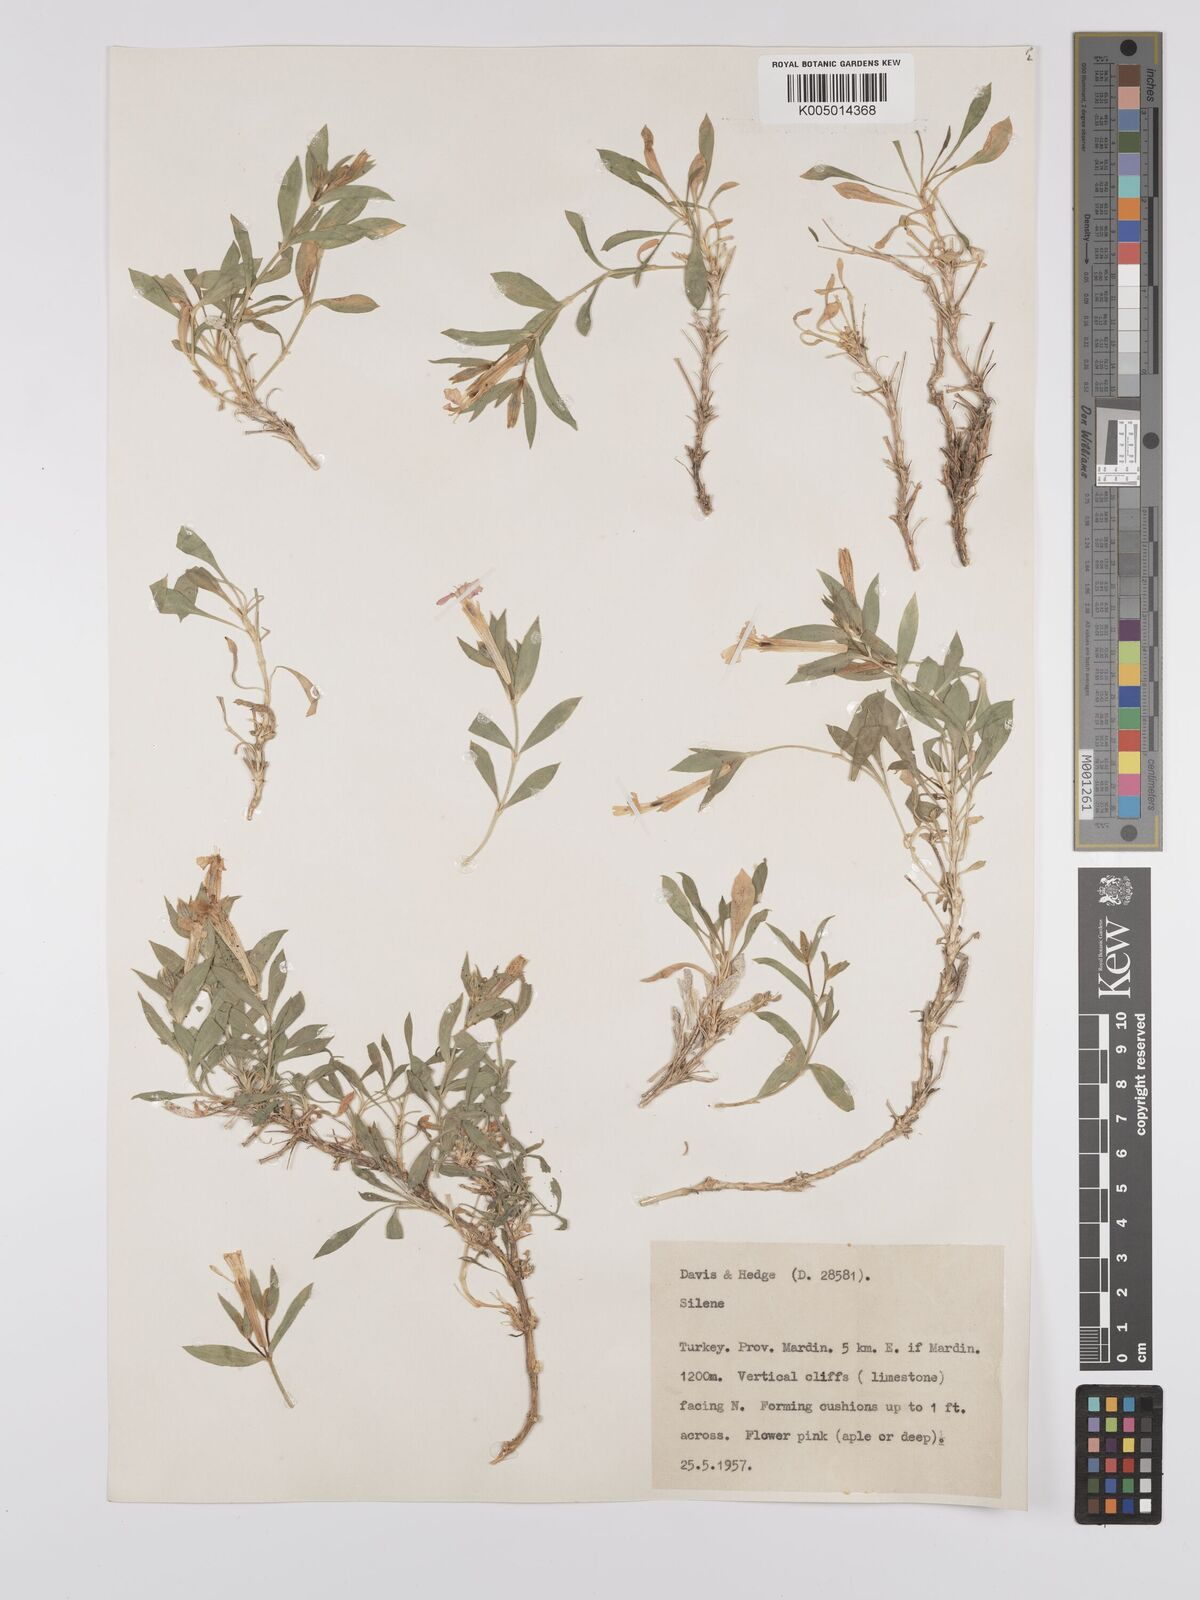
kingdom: Plantae
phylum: Tracheophyta
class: Magnoliopsida
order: Caryophyllales
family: Caryophyllaceae
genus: Silene
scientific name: Silene
